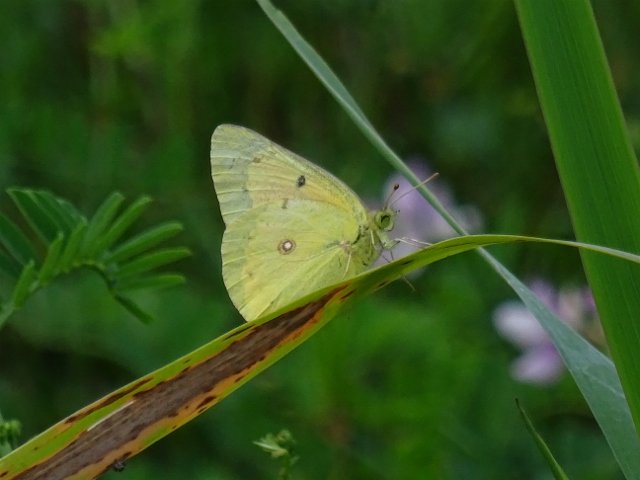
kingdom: Animalia
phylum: Arthropoda
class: Insecta
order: Lepidoptera
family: Pieridae
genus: Colias
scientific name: Colias philodice
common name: Clouded Sulphur
